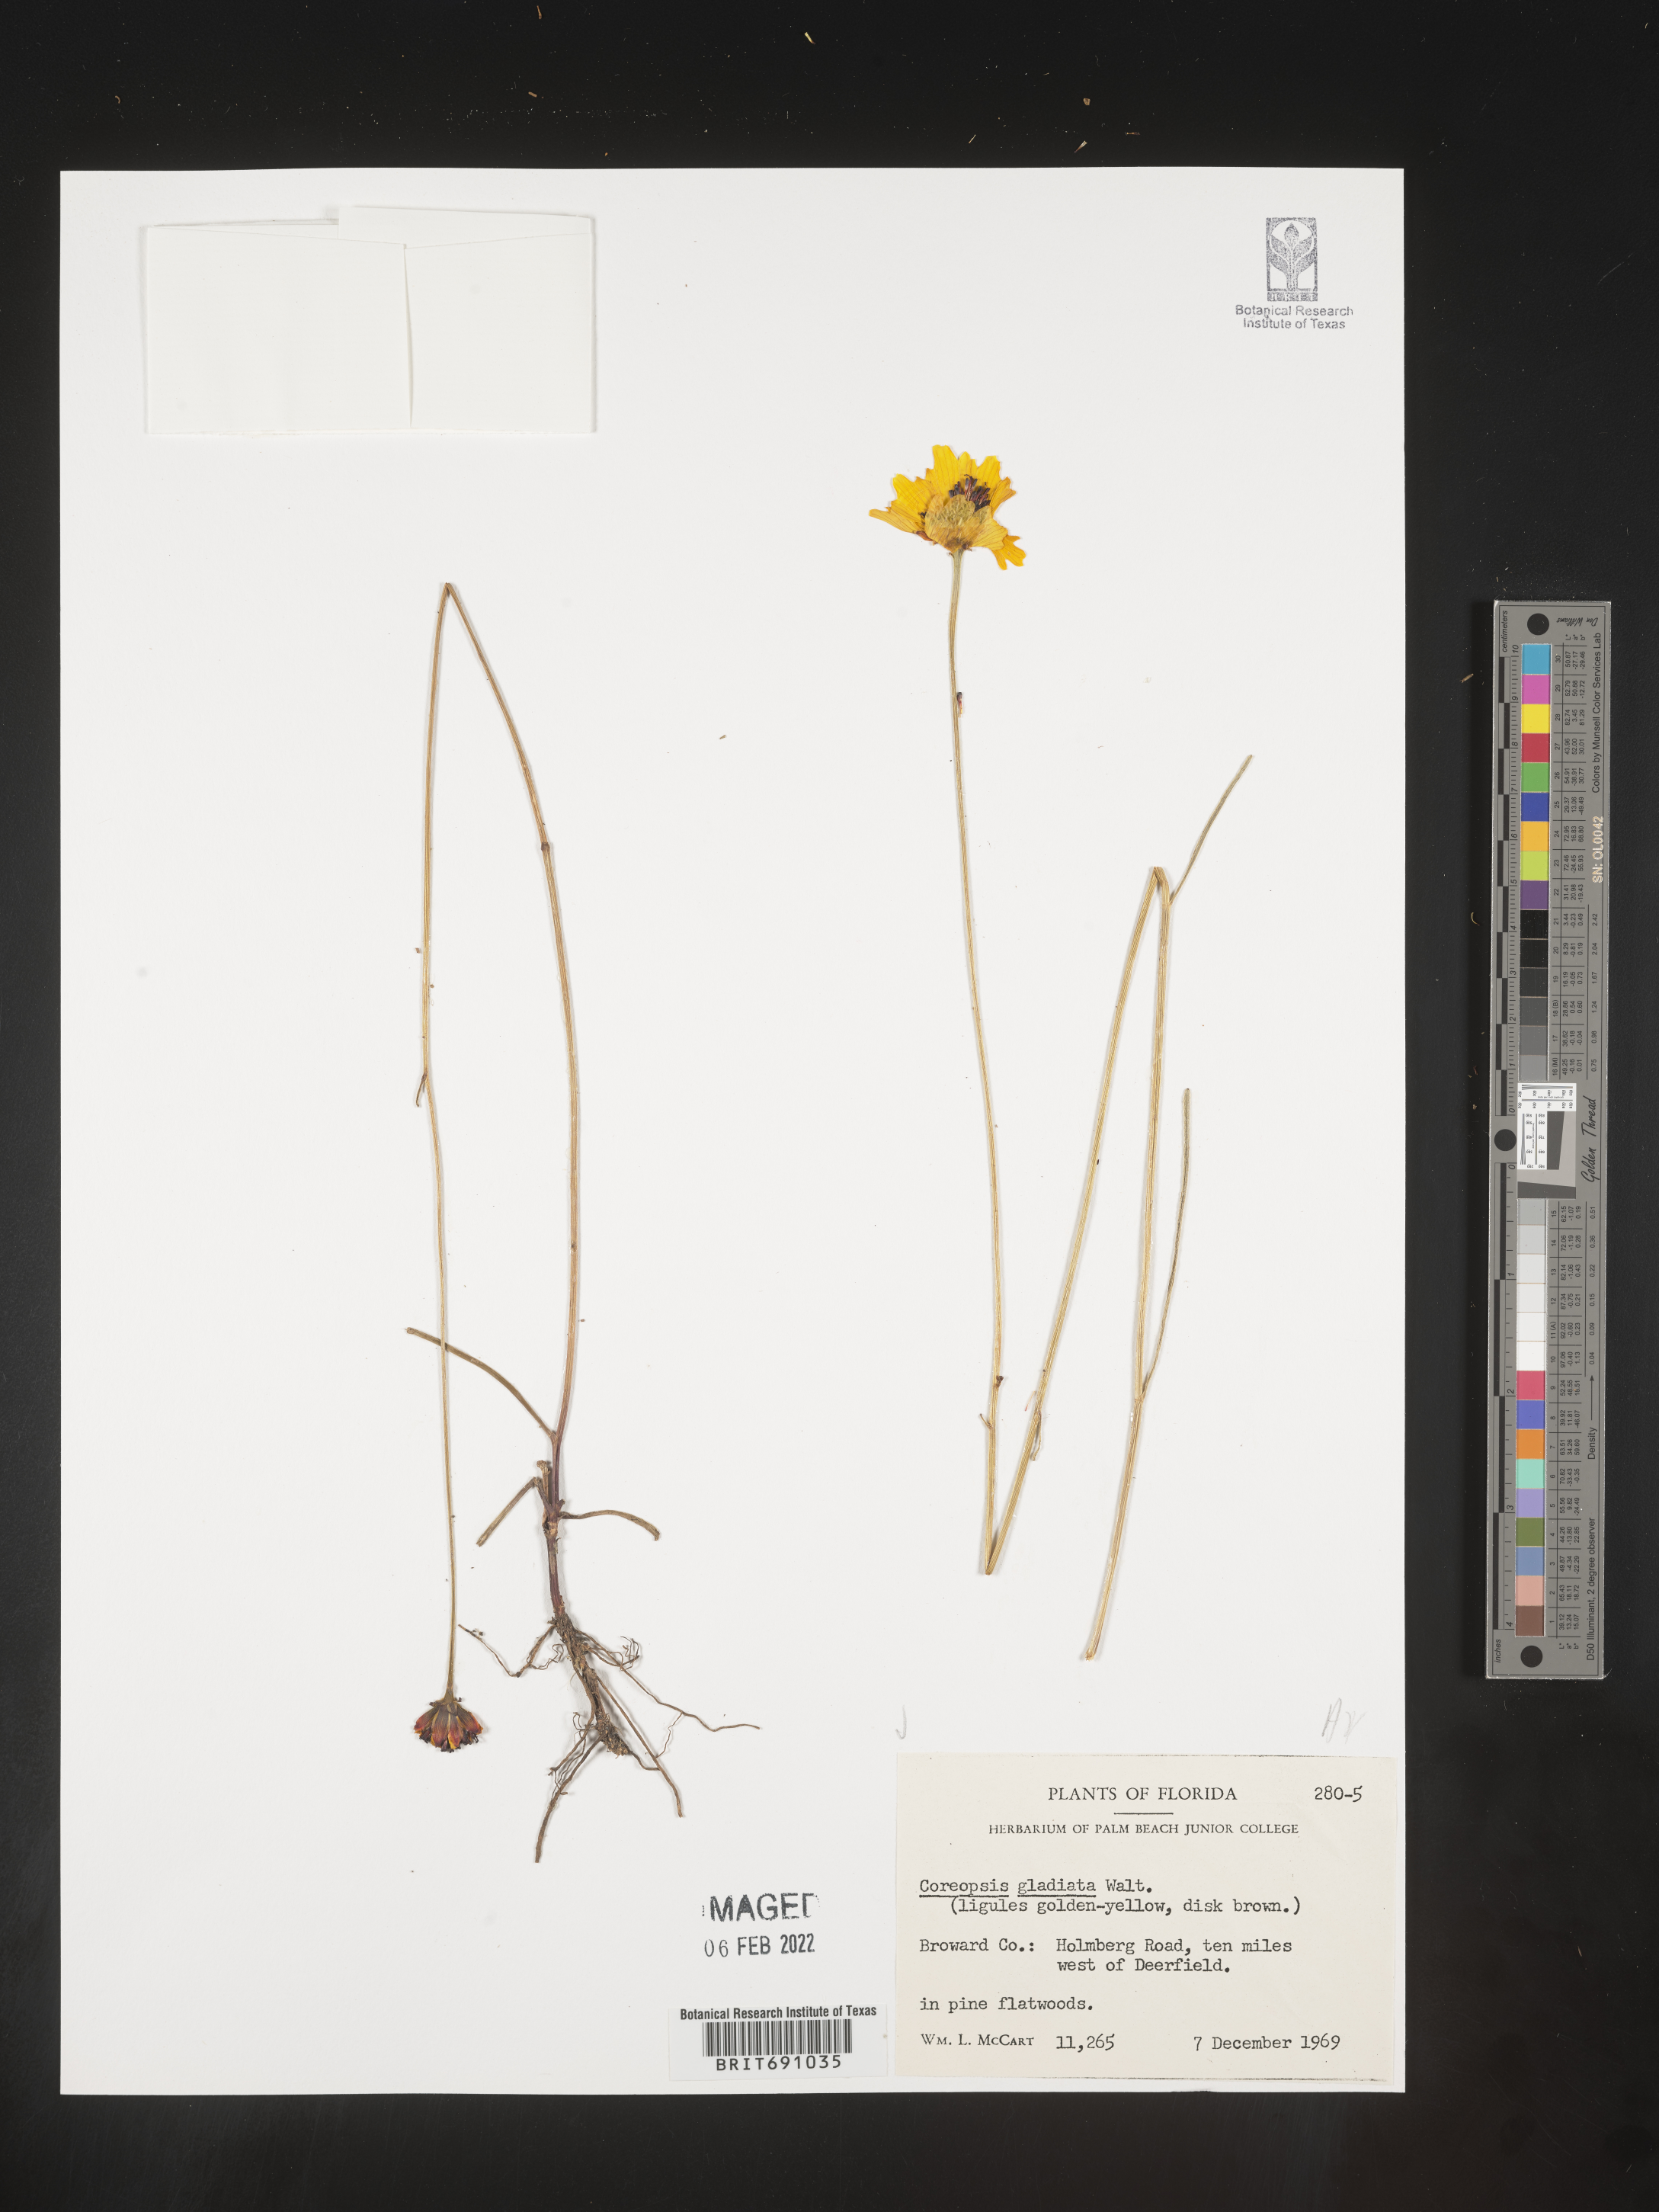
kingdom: Plantae
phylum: Tracheophyta
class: Magnoliopsida
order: Asterales
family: Asteraceae
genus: Coreopsis
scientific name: Coreopsis gladiata
